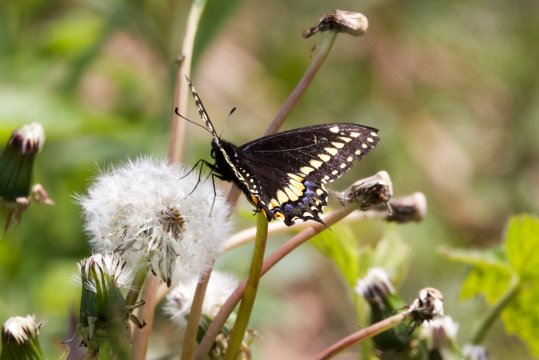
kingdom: Animalia
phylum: Arthropoda
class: Insecta
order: Lepidoptera
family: Papilionidae
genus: Papilio
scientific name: Papilio polyxenes
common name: Black Swallowtail
